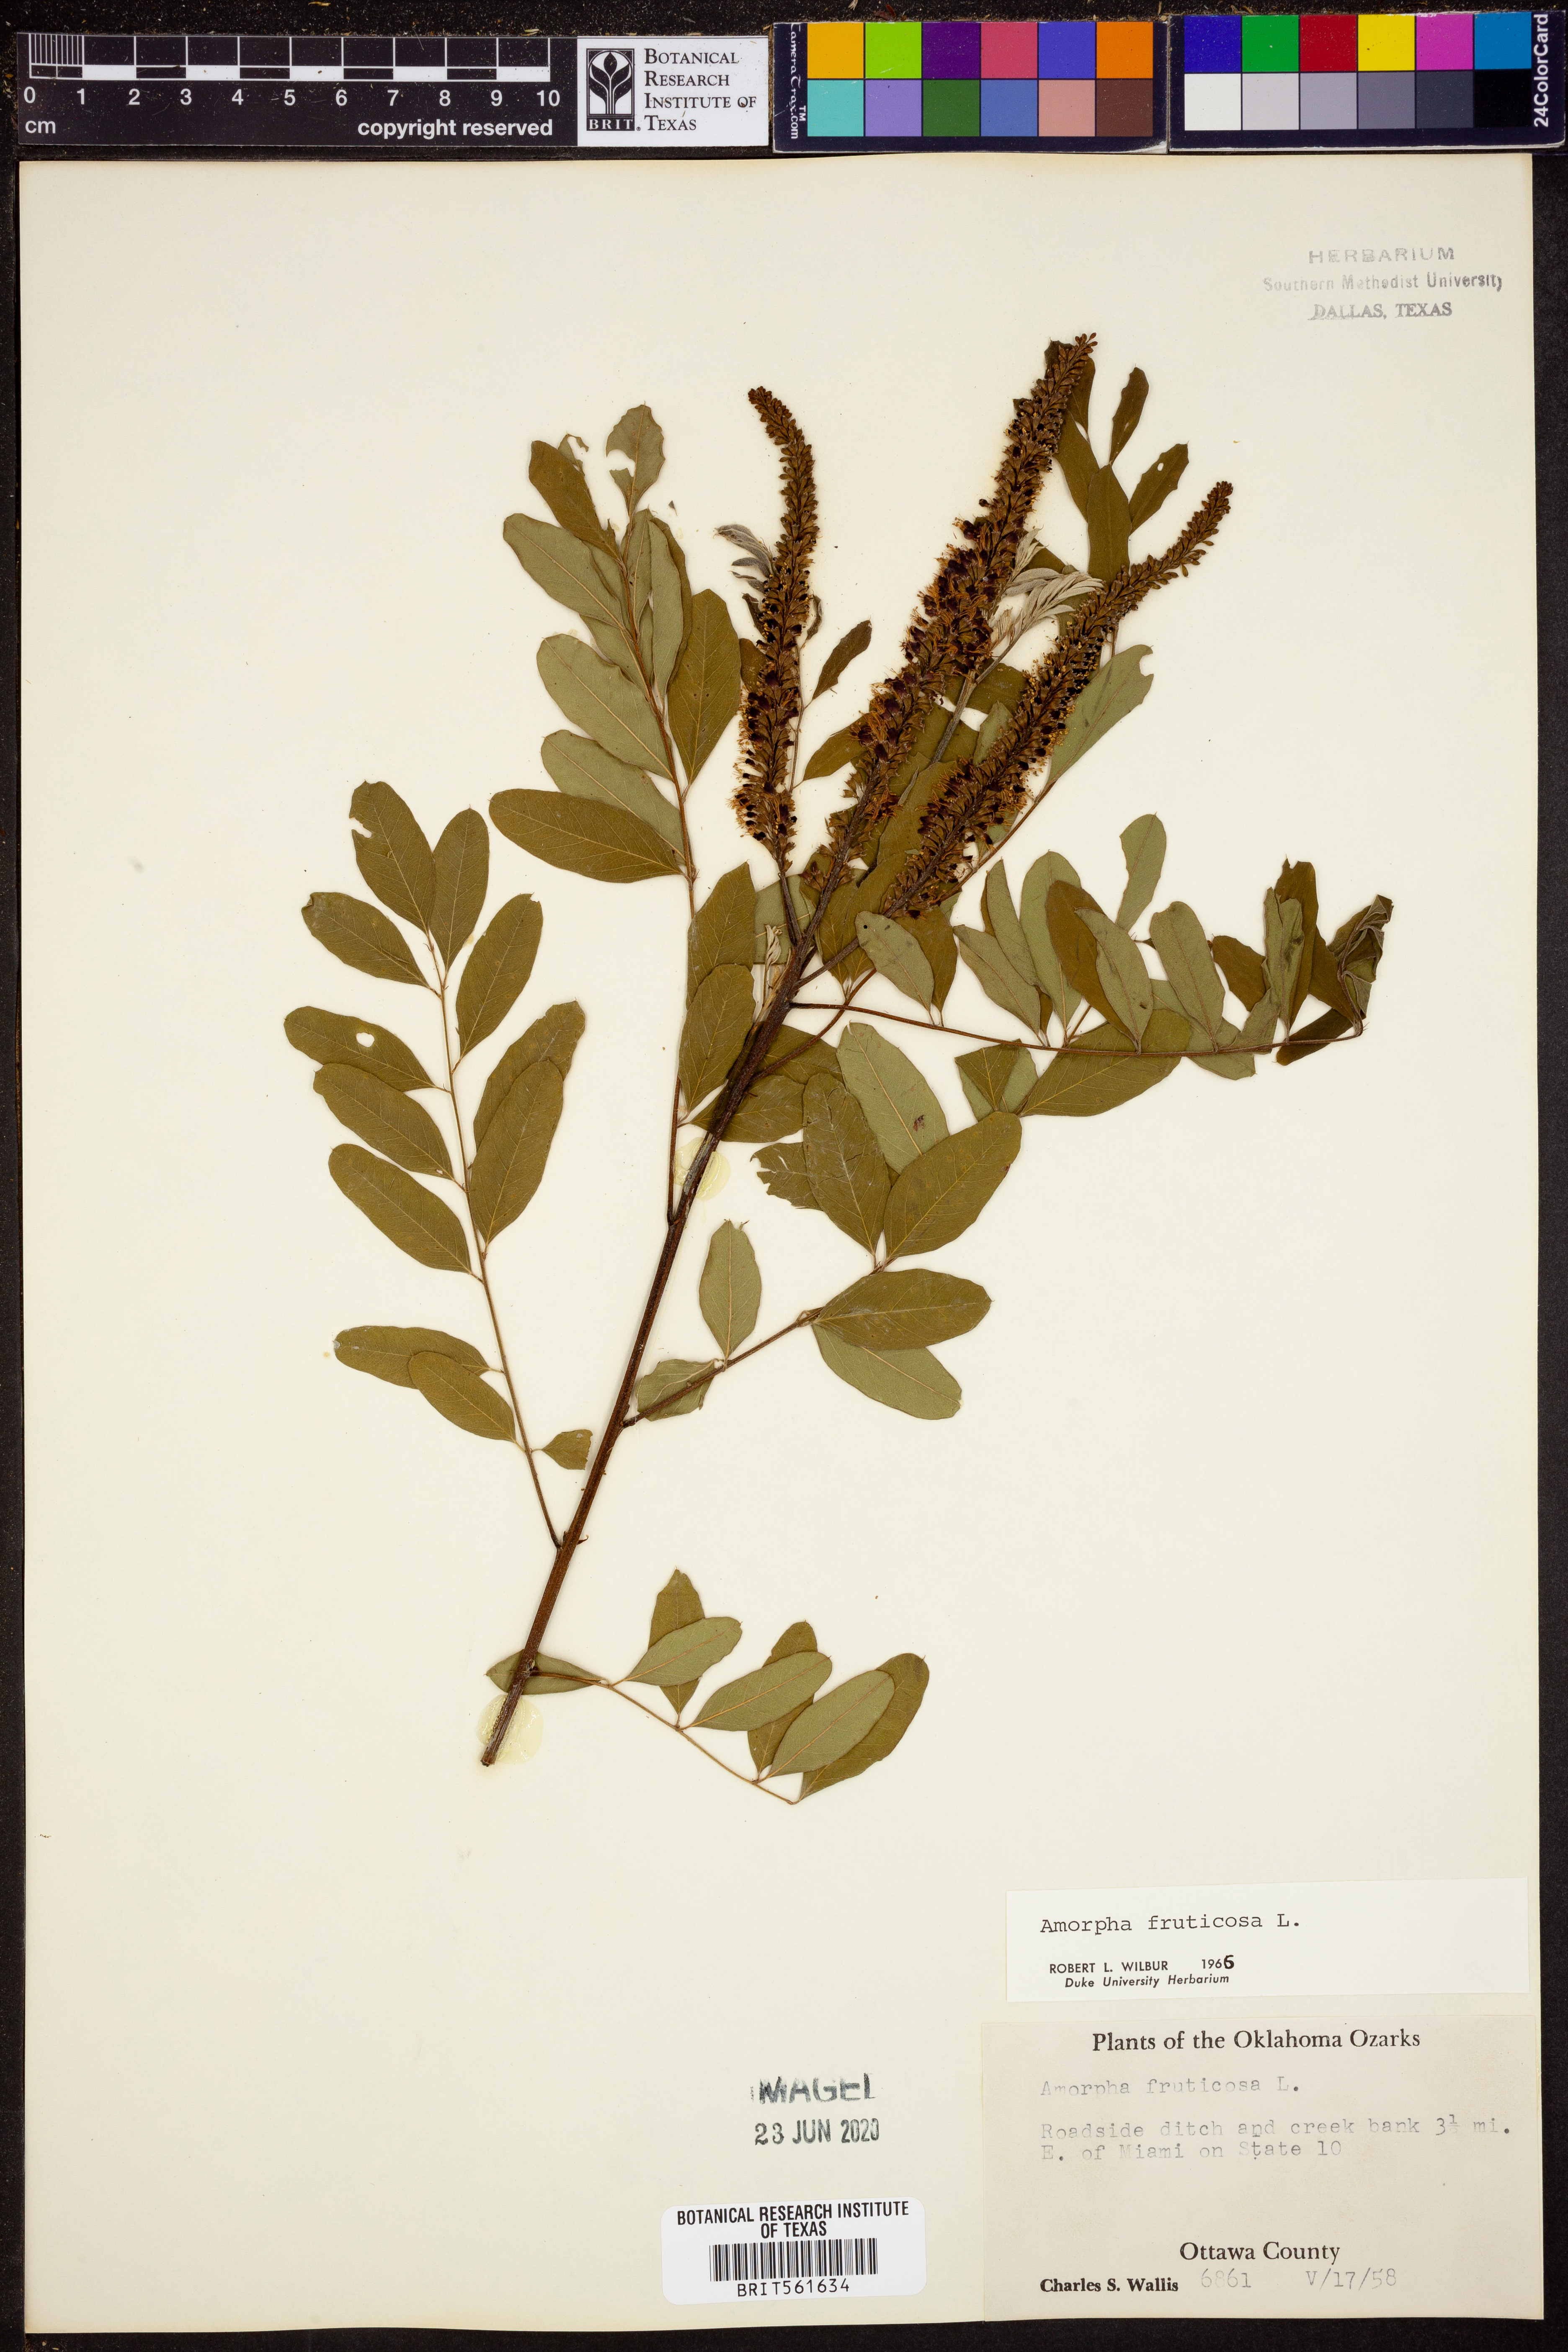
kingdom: Plantae
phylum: Tracheophyta
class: Magnoliopsida
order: Fabales
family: Fabaceae
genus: Amorpha
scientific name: Amorpha fruticosa
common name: False indigo
